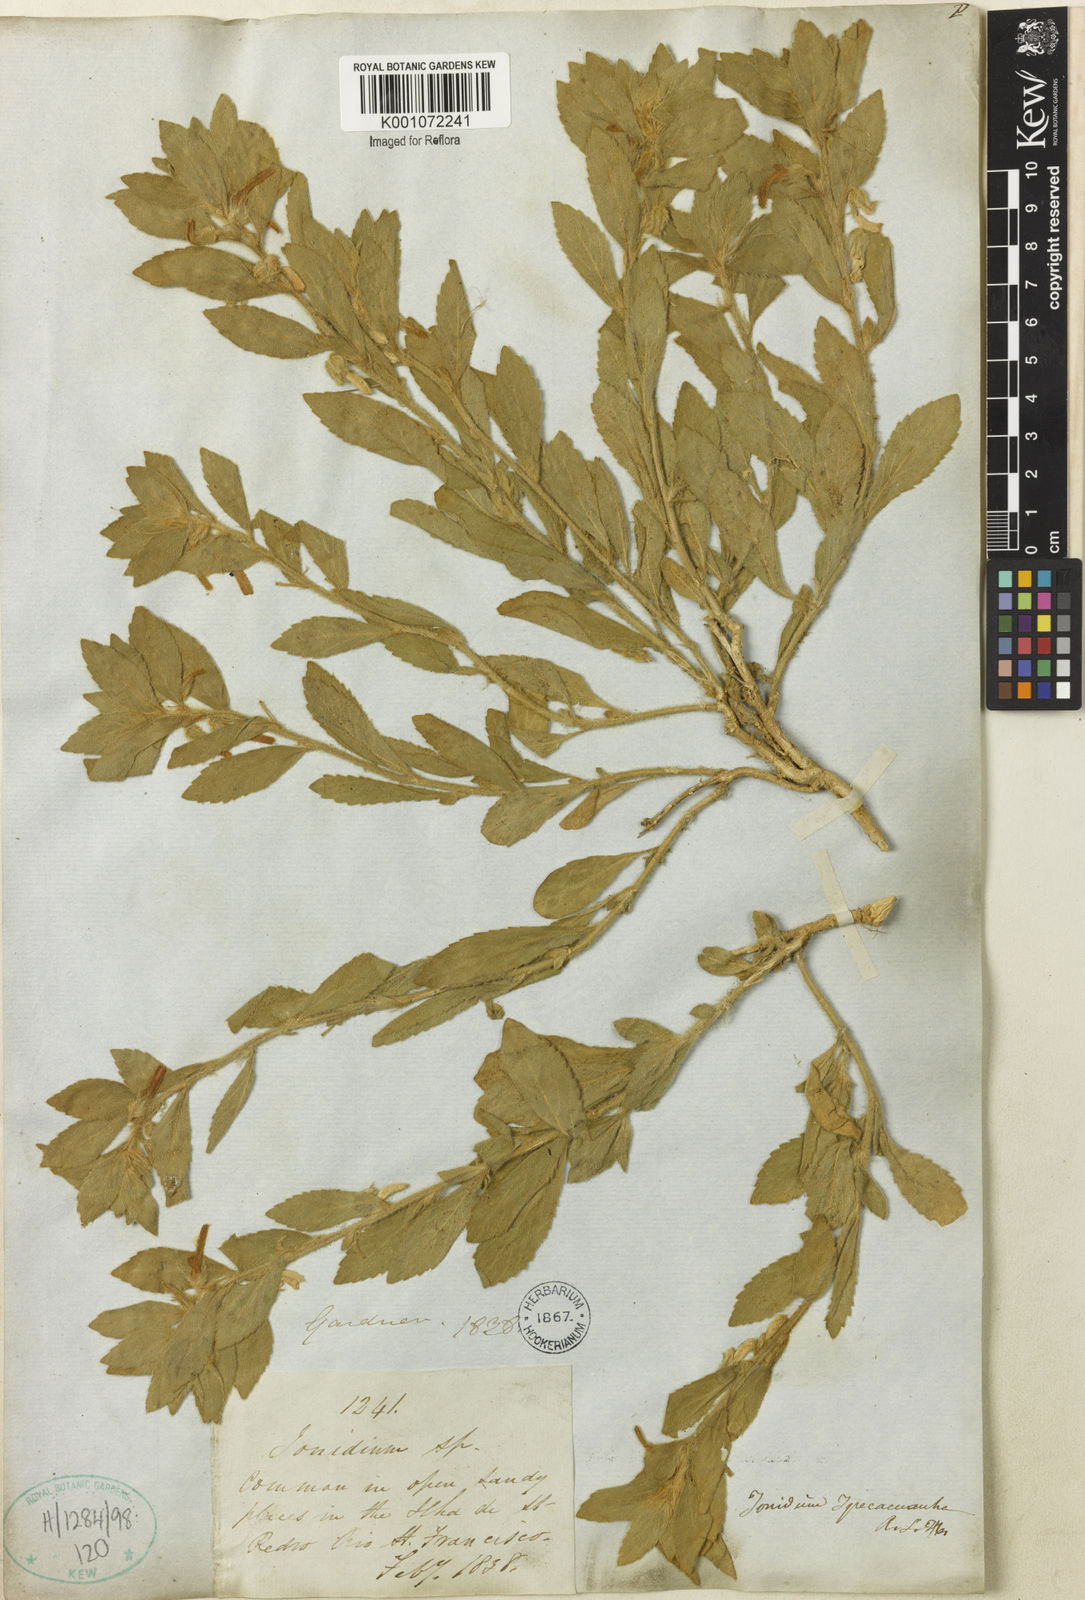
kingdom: Plantae
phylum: Tracheophyta
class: Magnoliopsida
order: Malpighiales
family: Violaceae
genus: Pombalia
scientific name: Pombalia calceolaria
